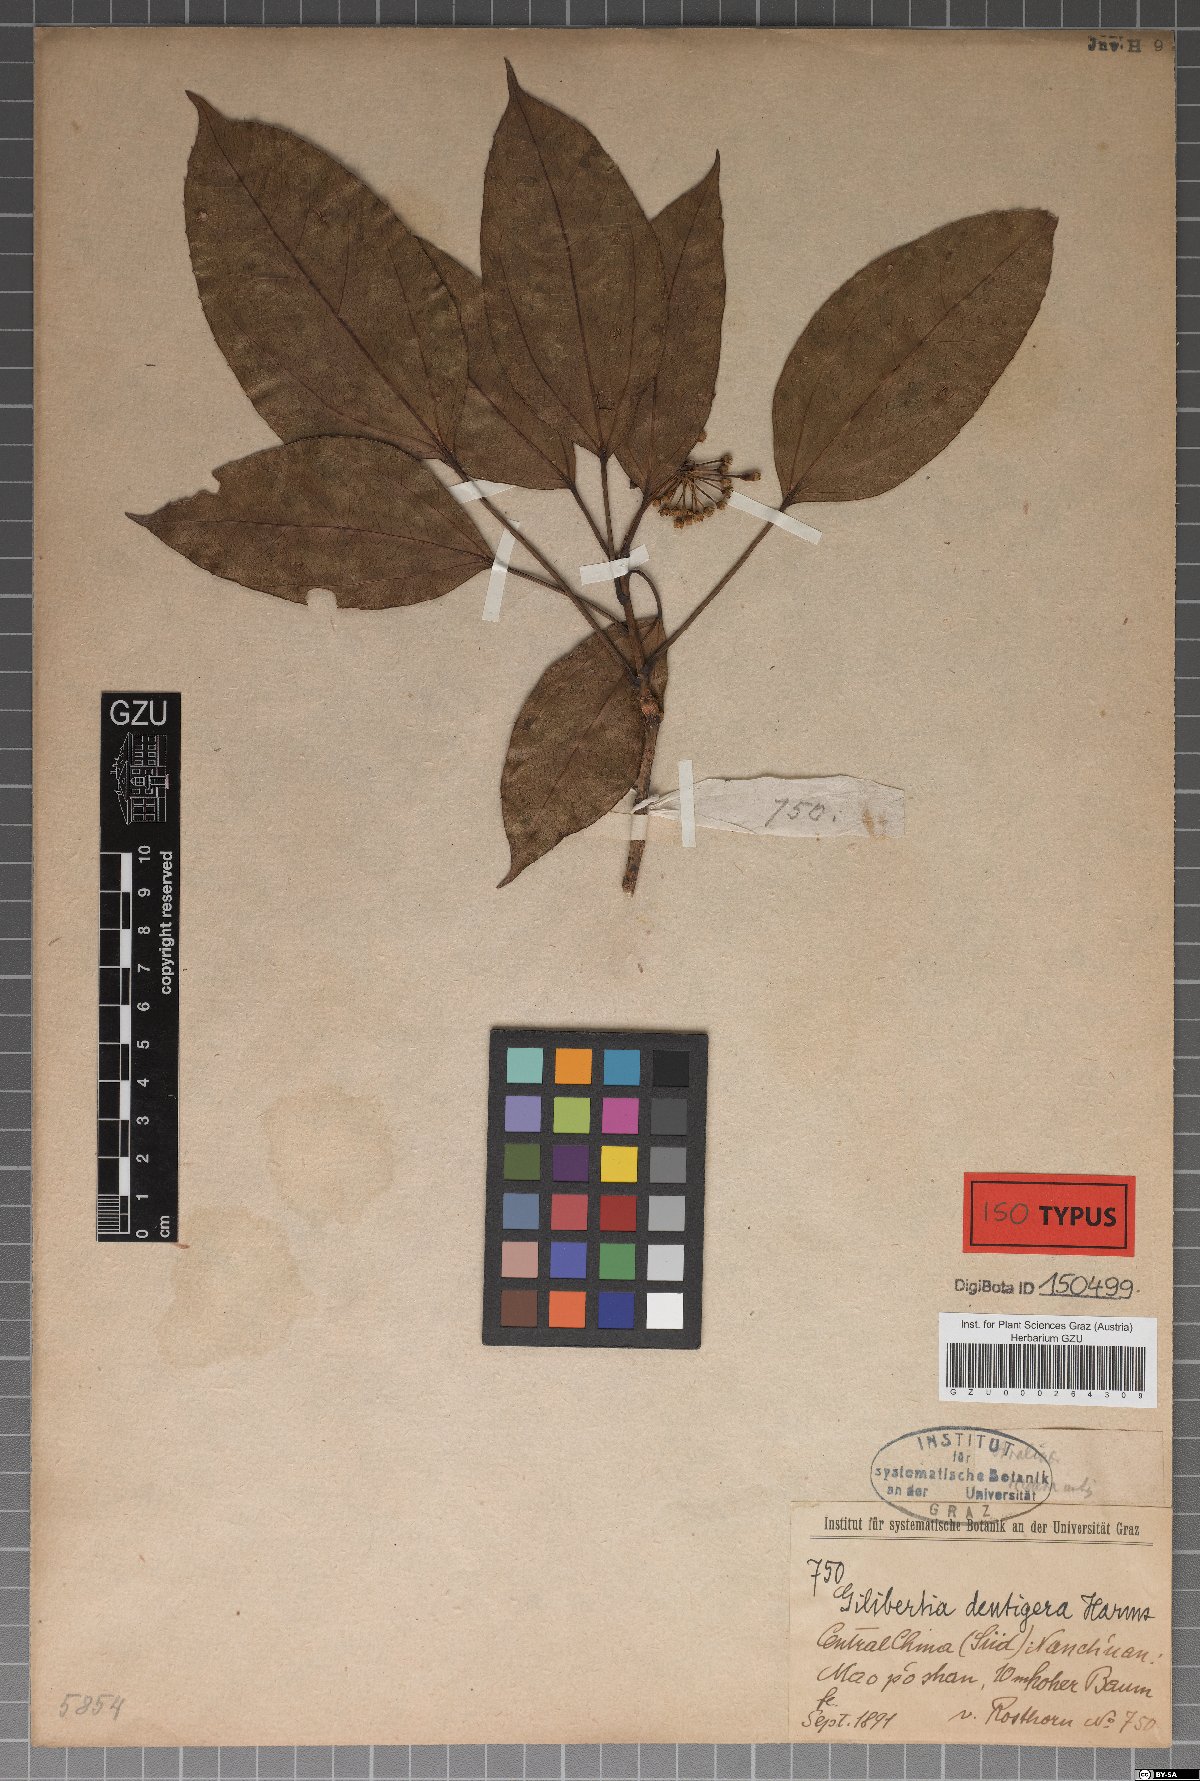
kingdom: Plantae
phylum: Tracheophyta
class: Magnoliopsida
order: Apiales
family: Araliaceae
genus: Dendropanax
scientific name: Dendropanax dentigerus
